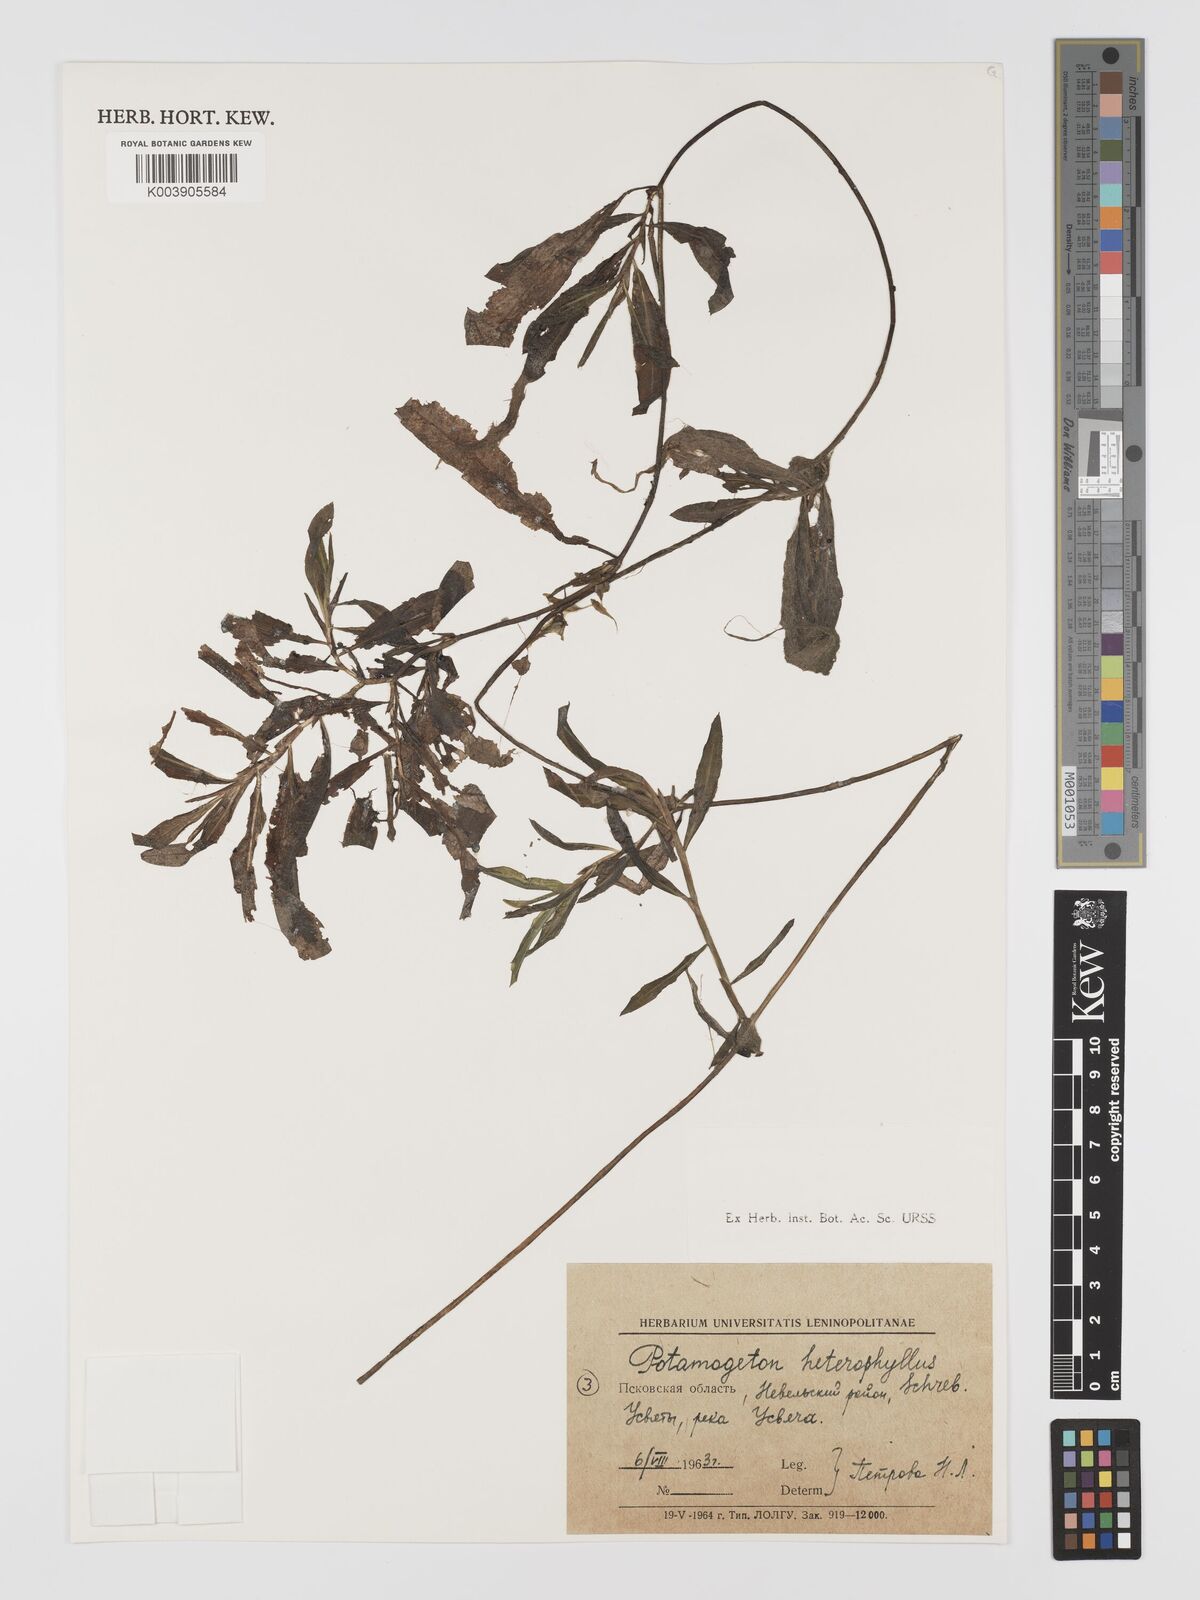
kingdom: Plantae
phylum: Tracheophyta
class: Liliopsida
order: Alismatales
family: Potamogetonaceae
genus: Potamogeton
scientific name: Potamogeton gramineus
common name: Various-leaved pondweed
